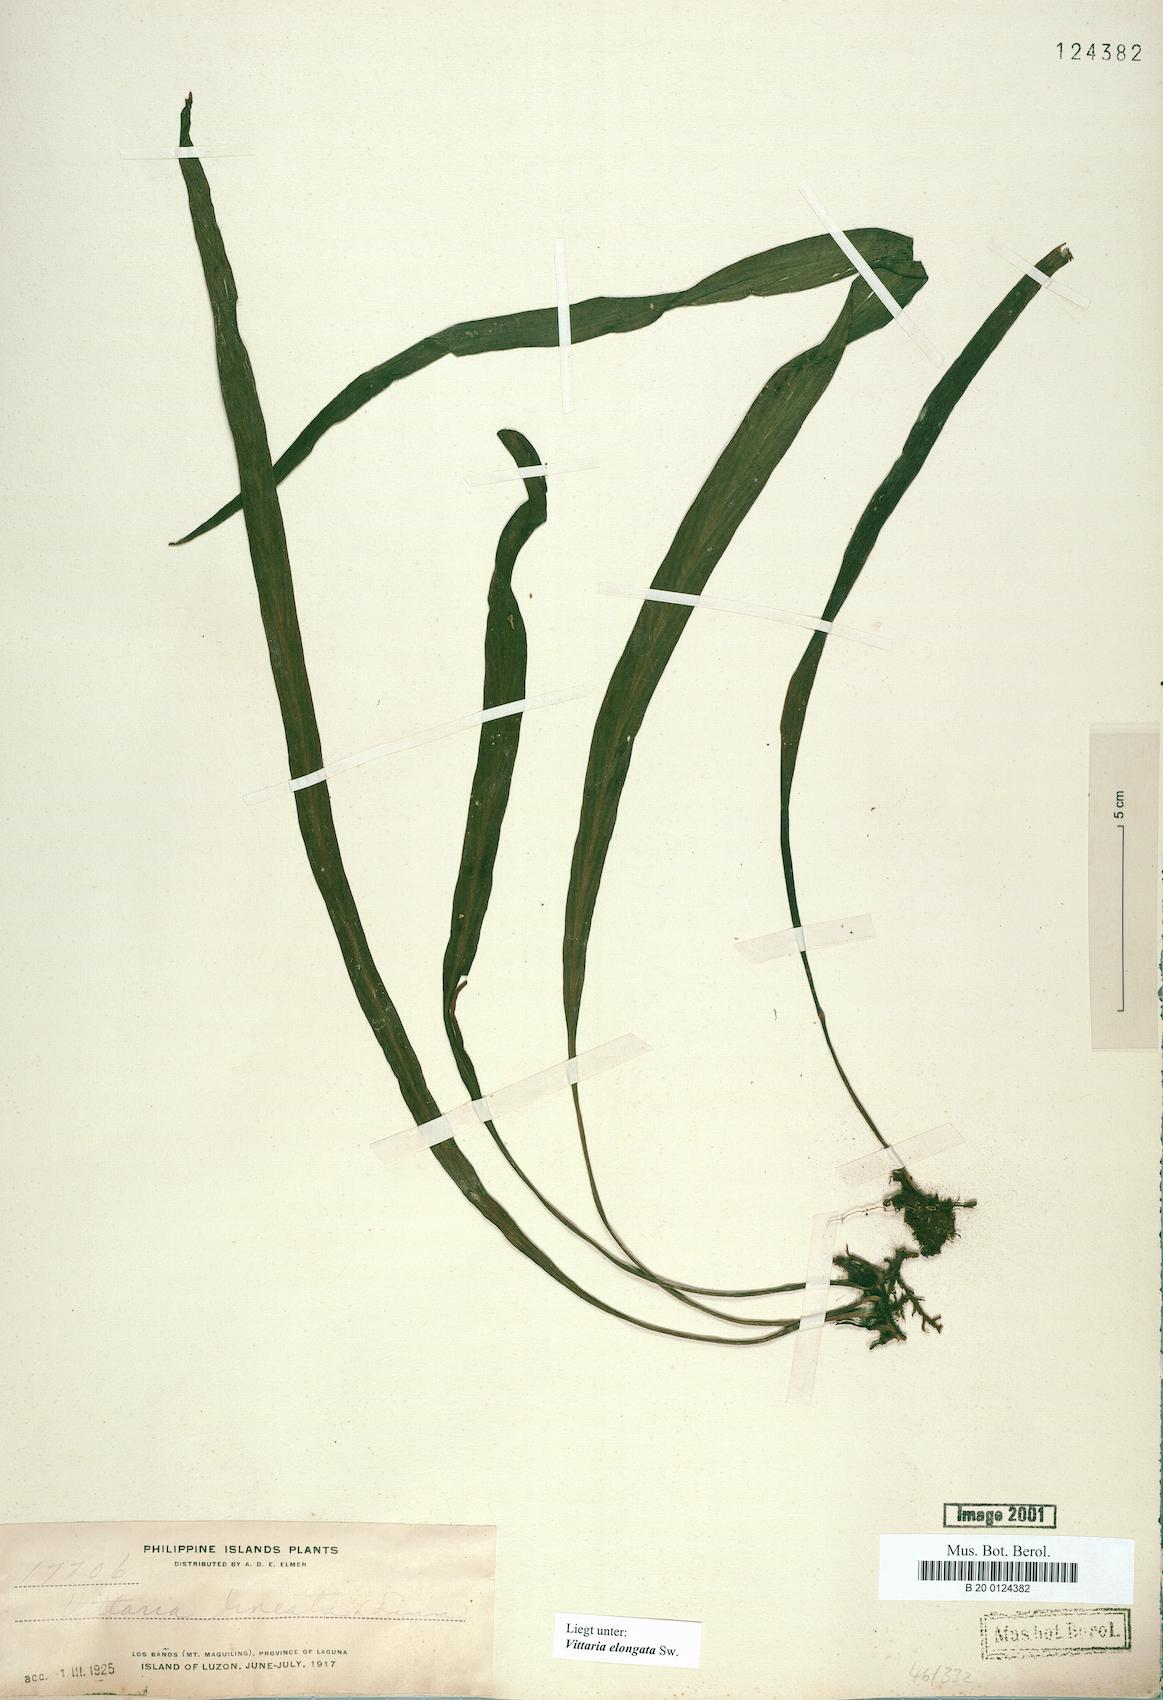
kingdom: Plantae
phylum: Tracheophyta
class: Polypodiopsida
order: Polypodiales
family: Pteridaceae
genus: Haplopteris
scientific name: Haplopteris elongata
